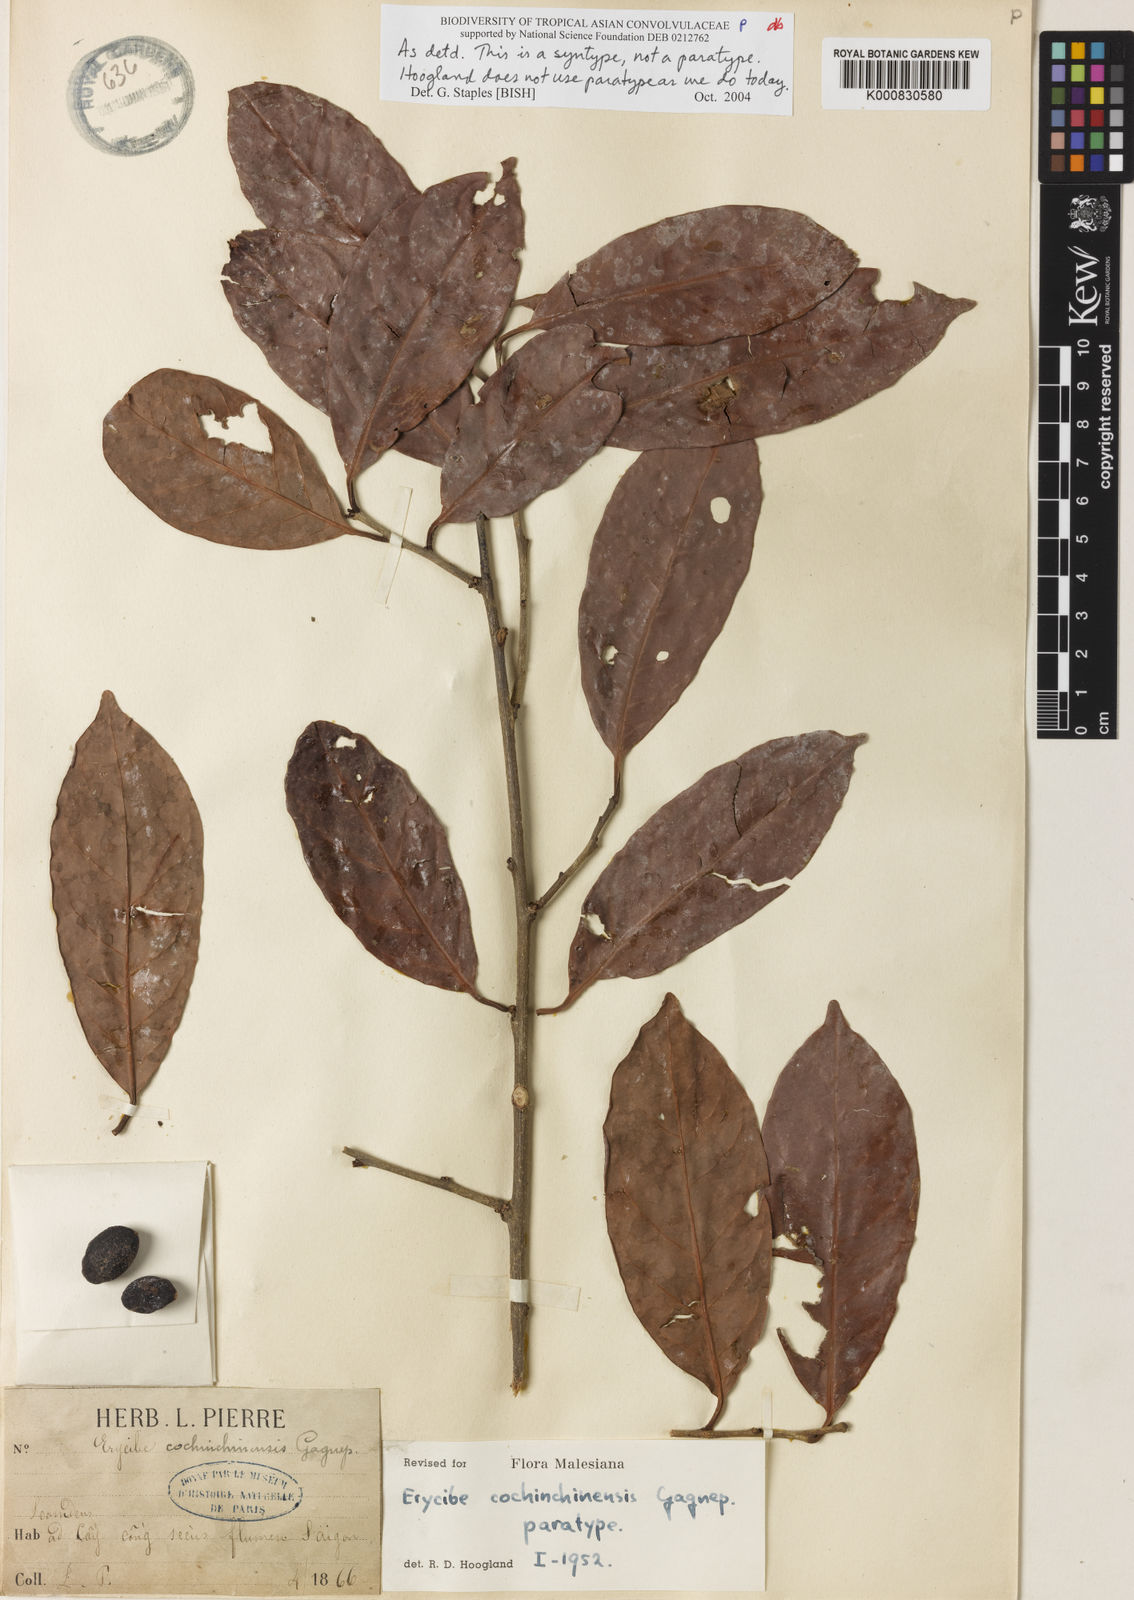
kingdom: Plantae
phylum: Tracheophyta
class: Magnoliopsida
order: Solanales
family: Convolvulaceae
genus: Erycibe
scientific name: Erycibe cochinchinensis
